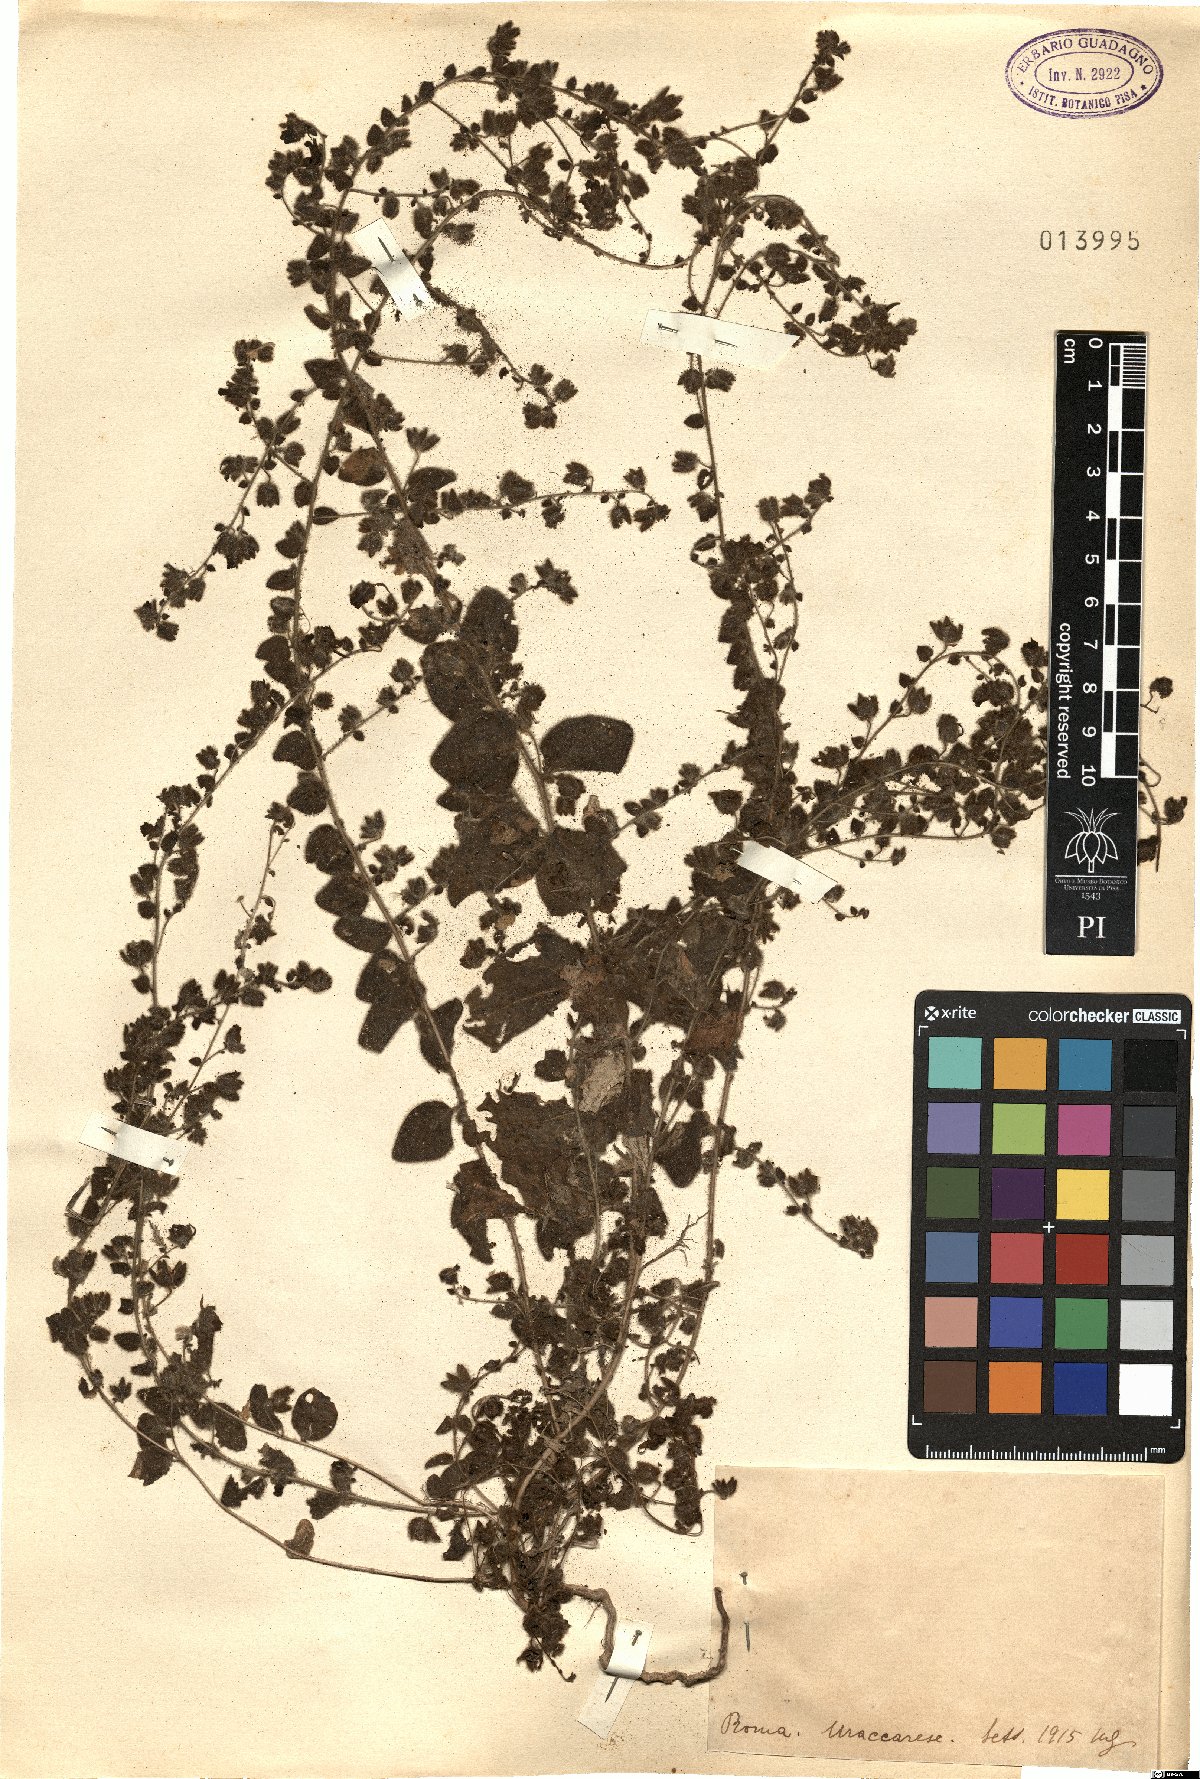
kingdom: Plantae
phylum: Tracheophyta
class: Magnoliopsida
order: Lamiales
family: Plantaginaceae
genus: Linaria
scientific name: Linaria
